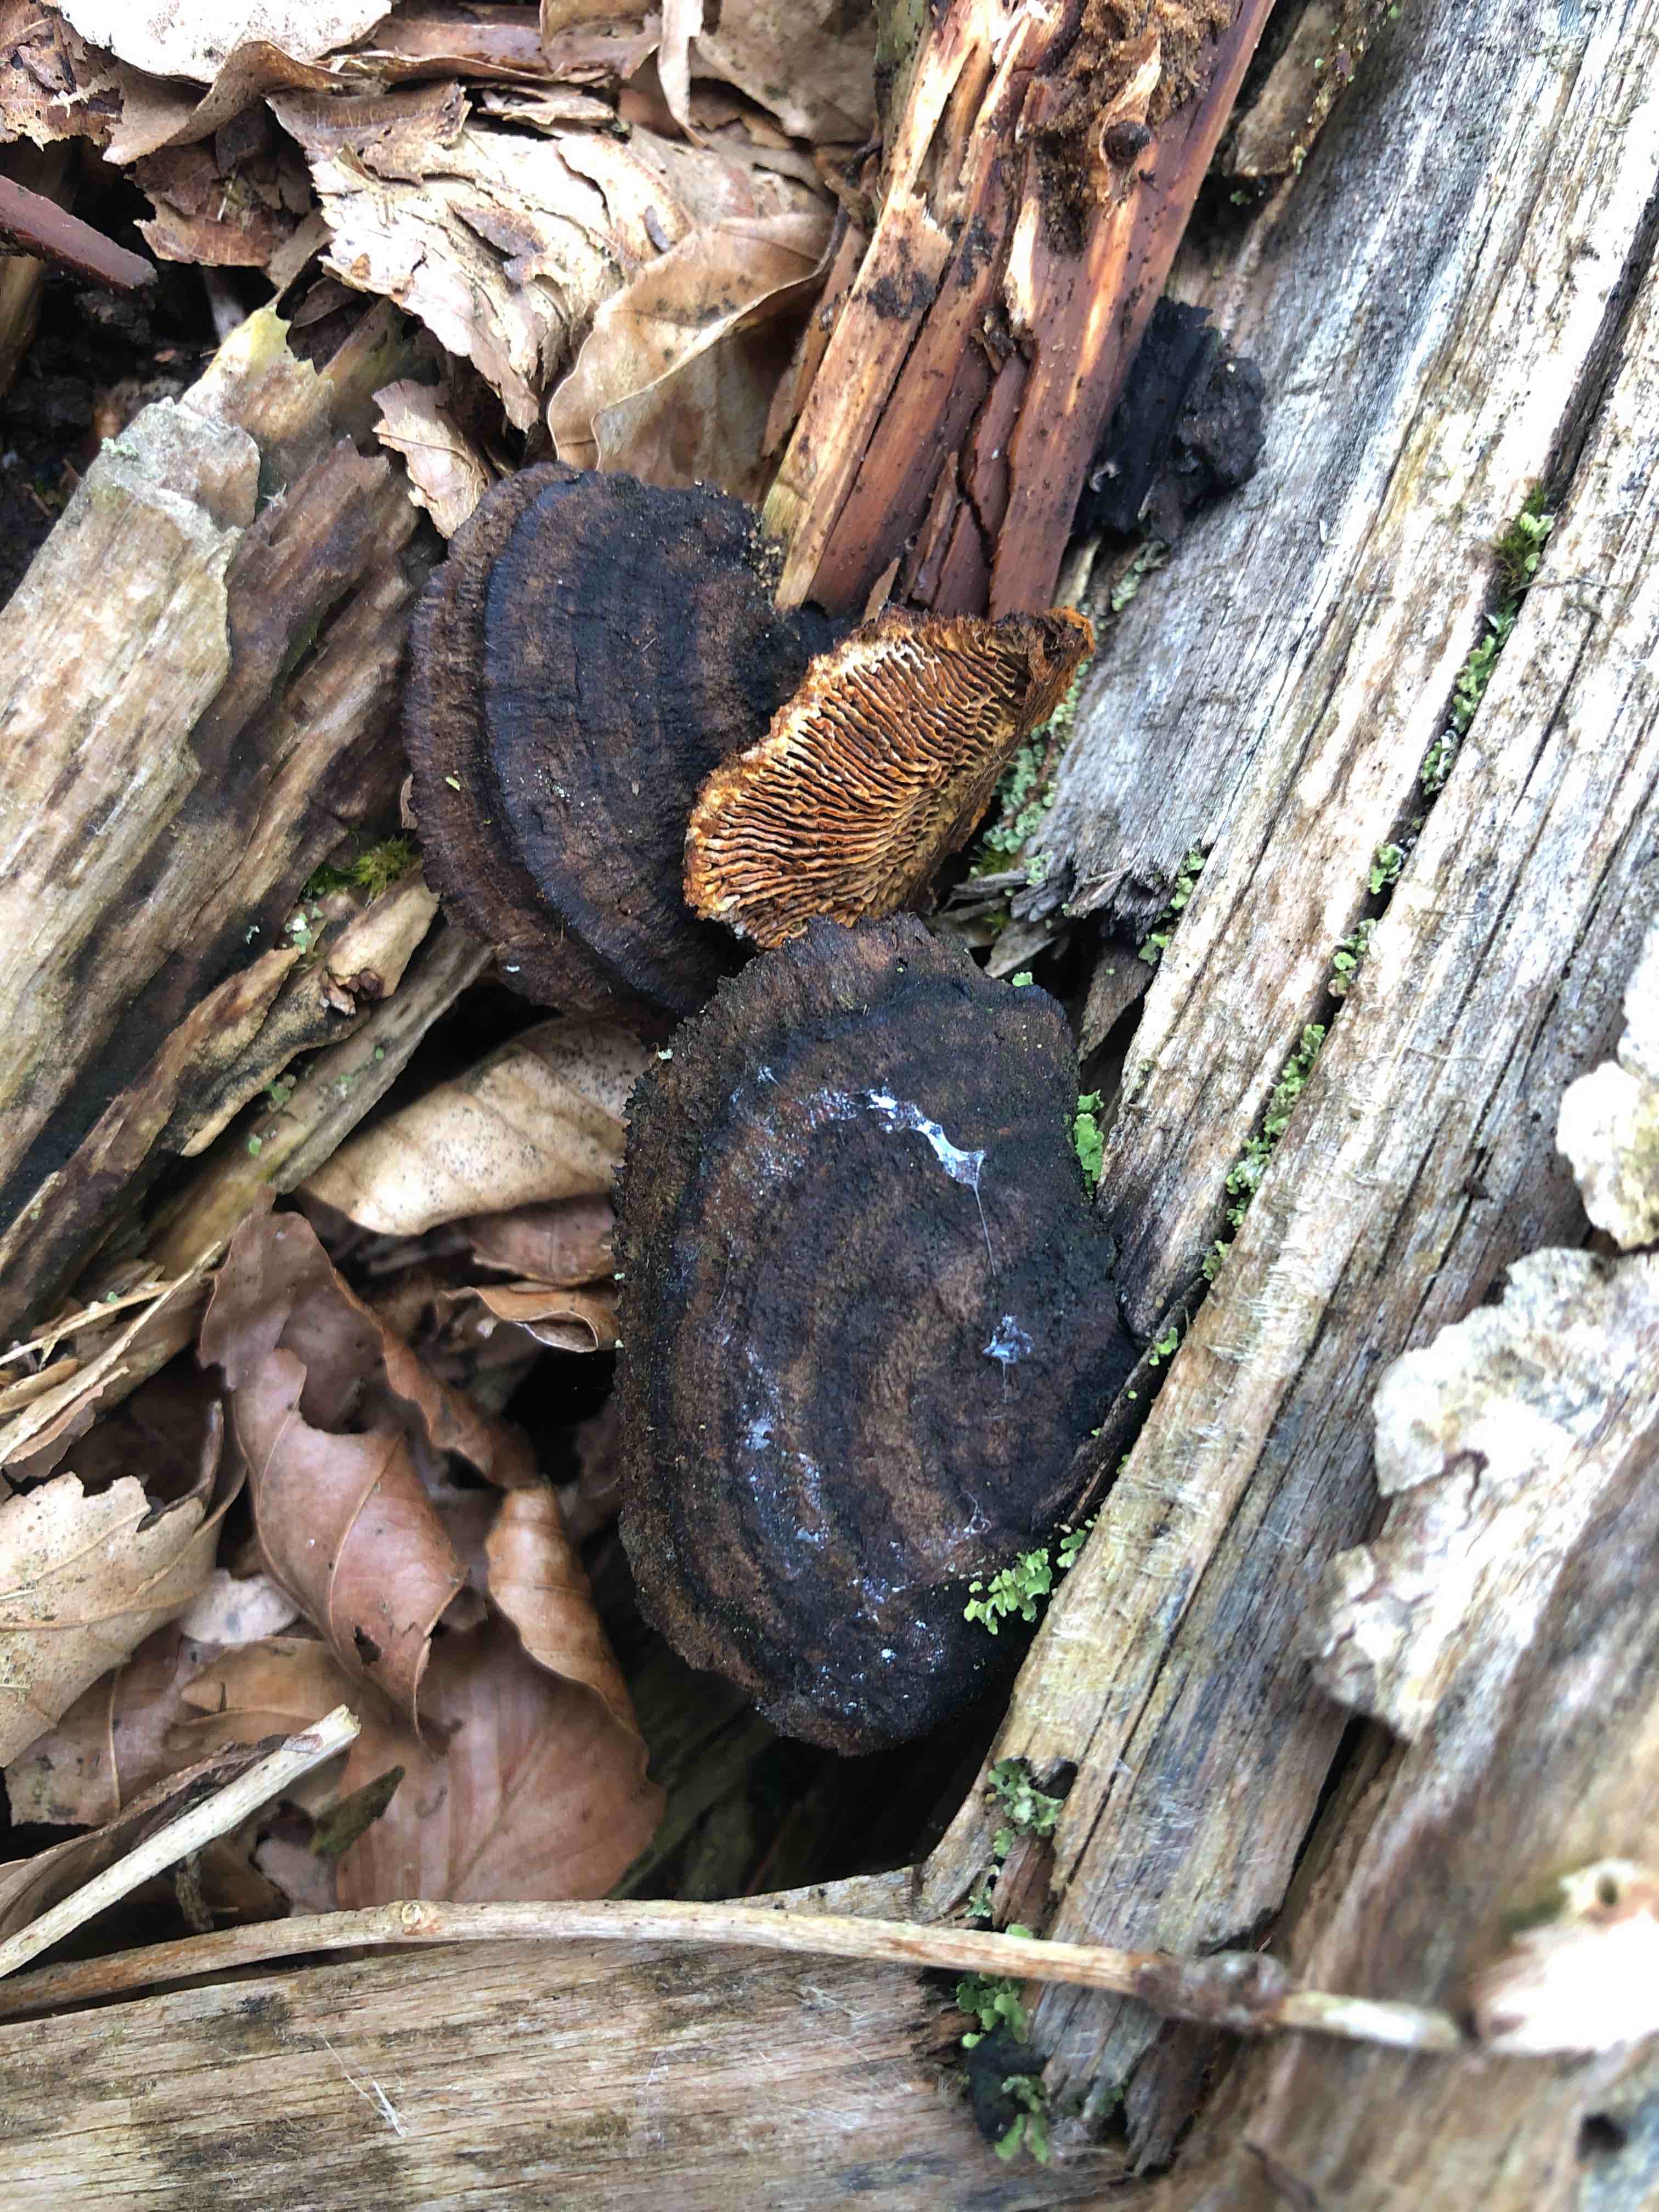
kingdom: Fungi
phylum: Basidiomycota
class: Agaricomycetes
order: Gloeophyllales
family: Gloeophyllaceae
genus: Gloeophyllum
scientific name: Gloeophyllum sepiarium
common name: fyrre-korkhat
